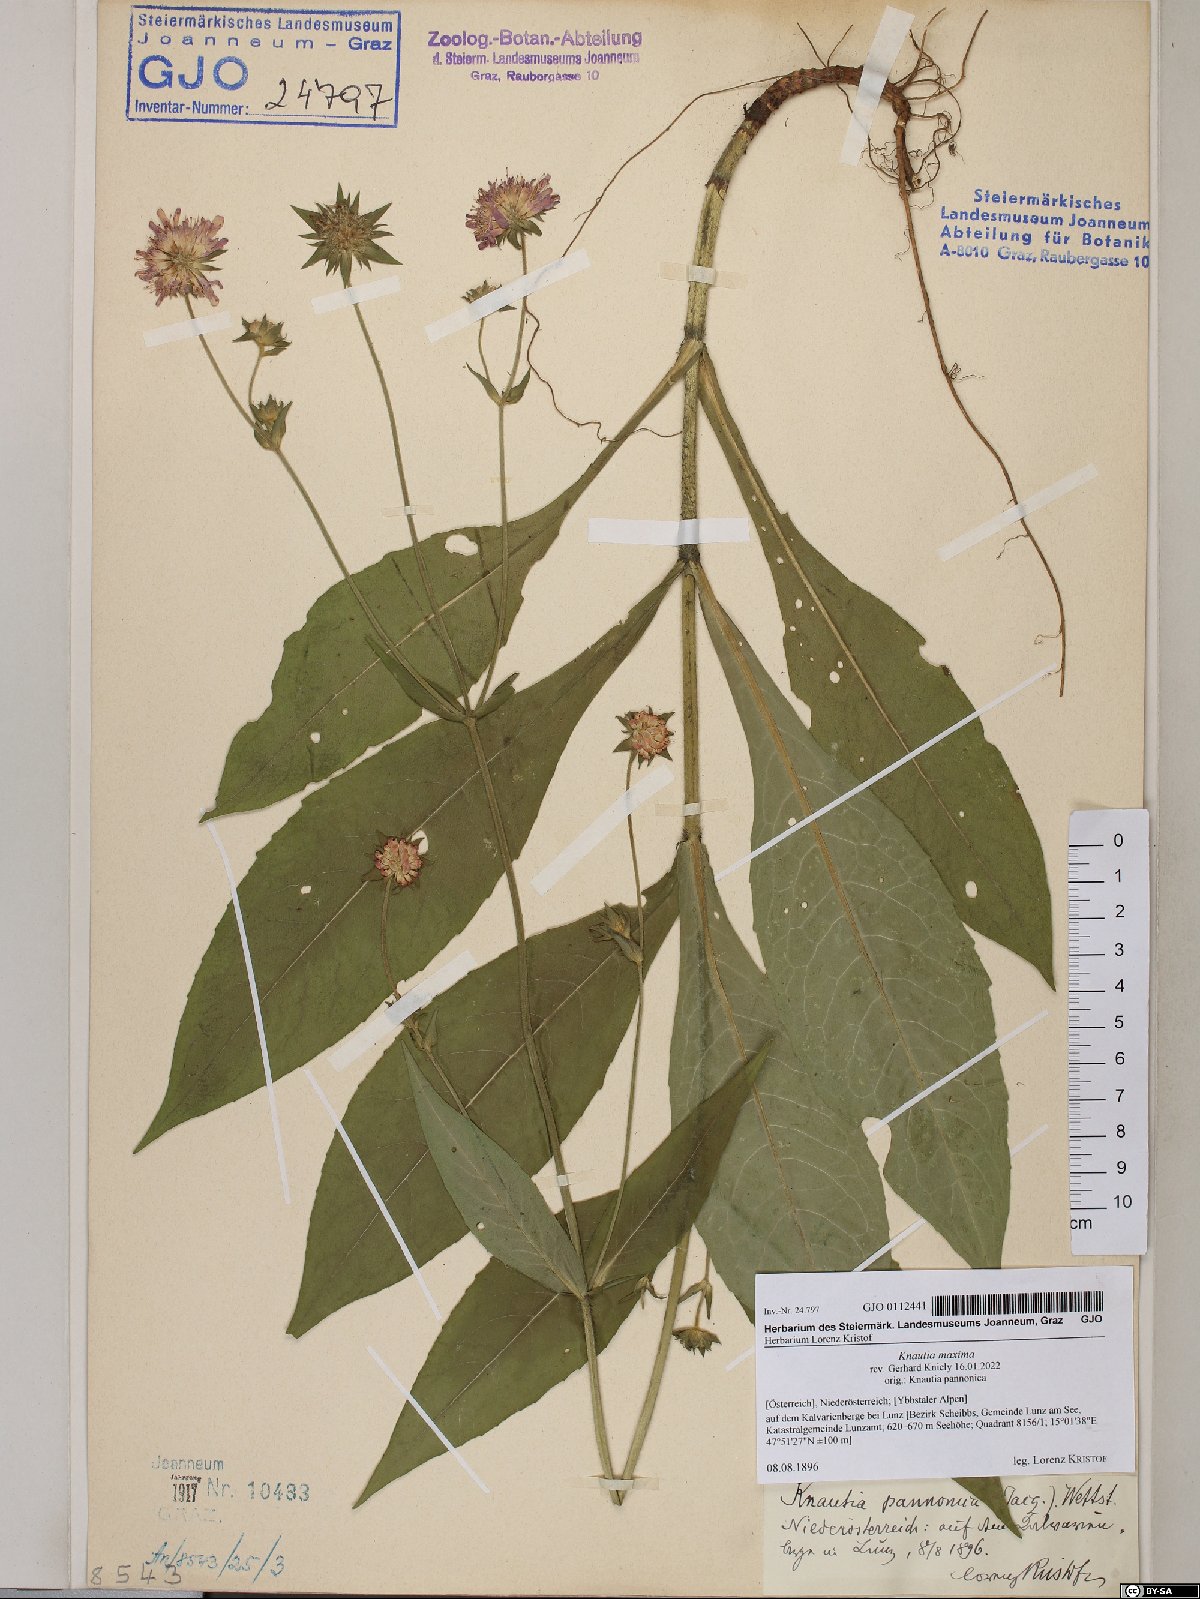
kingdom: Plantae
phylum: Tracheophyta
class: Magnoliopsida
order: Dipsacales
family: Caprifoliaceae
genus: Knautia
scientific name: Knautia dipsacifolia
